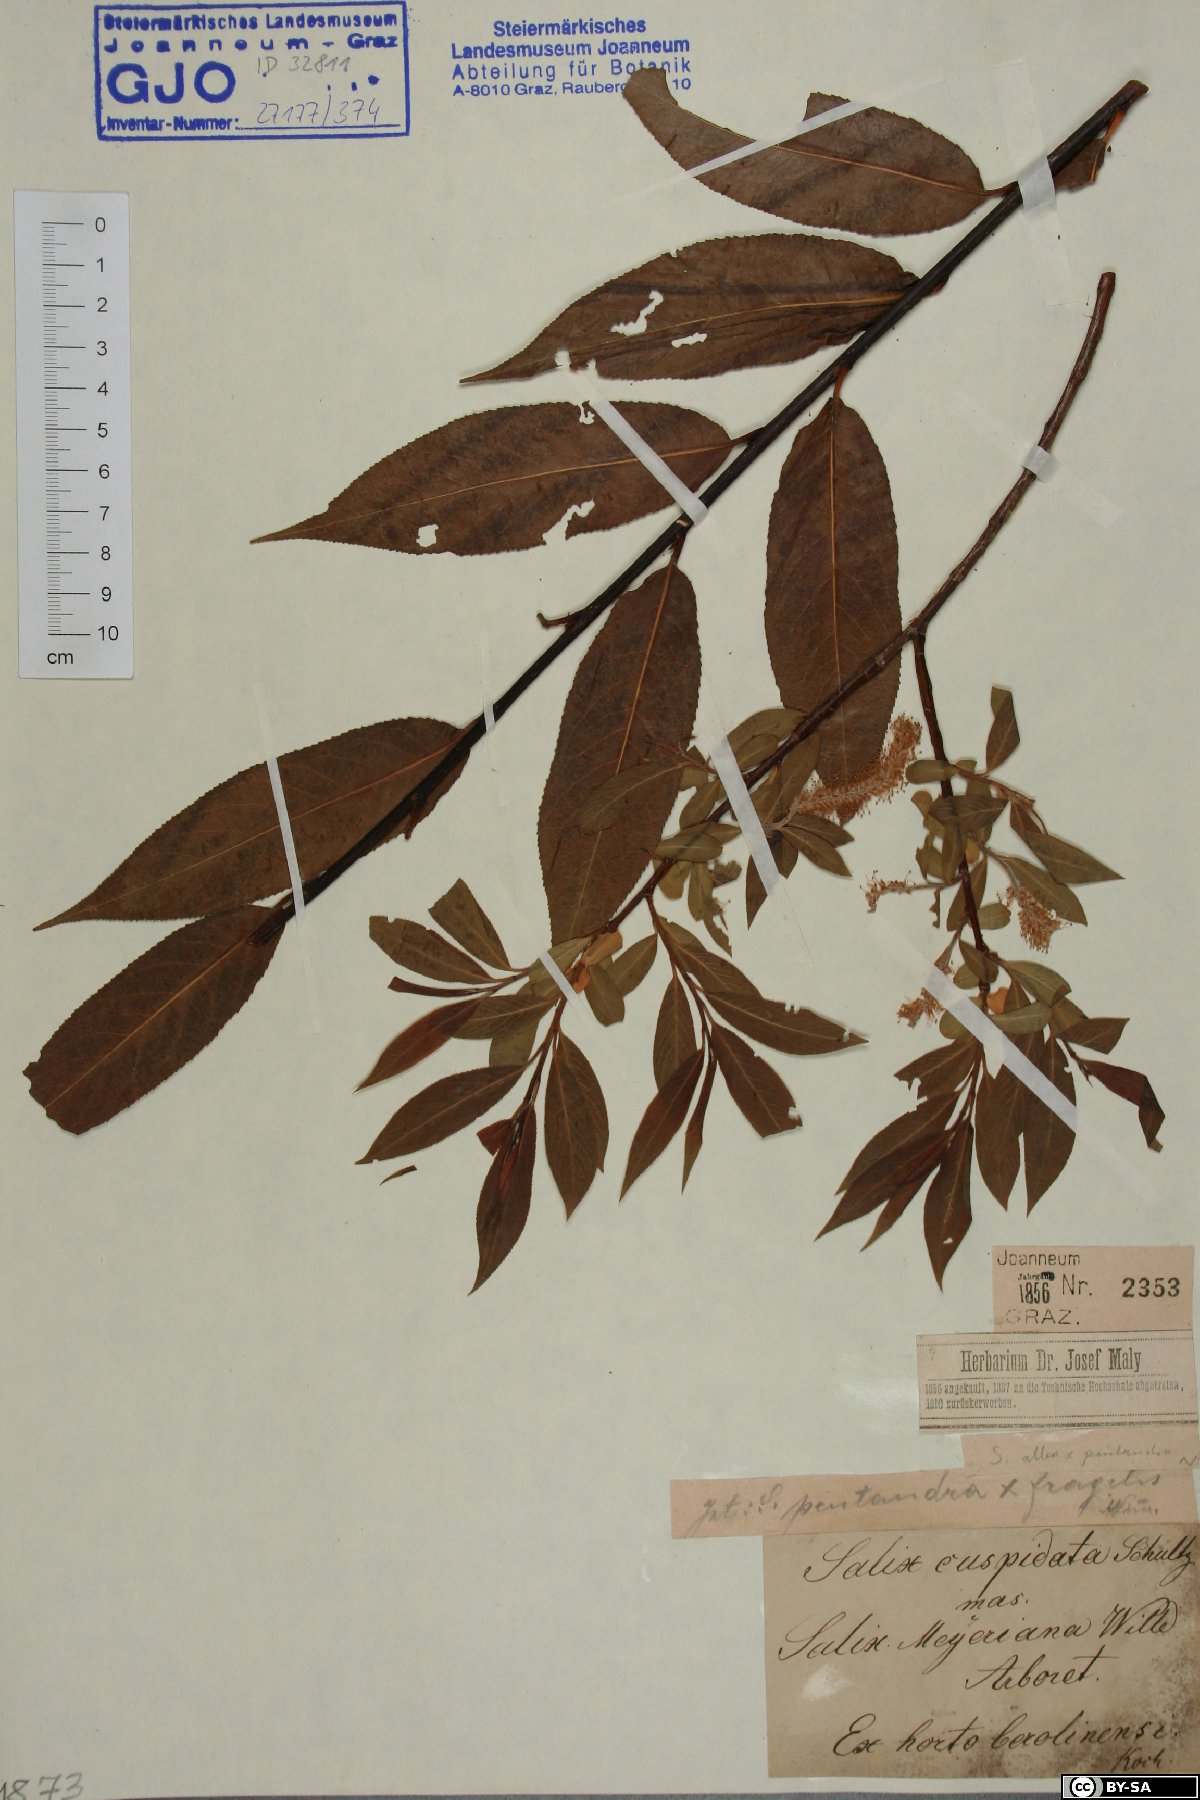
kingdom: Plantae
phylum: Tracheophyta
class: Magnoliopsida
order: Malpighiales
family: Salicaceae
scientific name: Salicaceae
